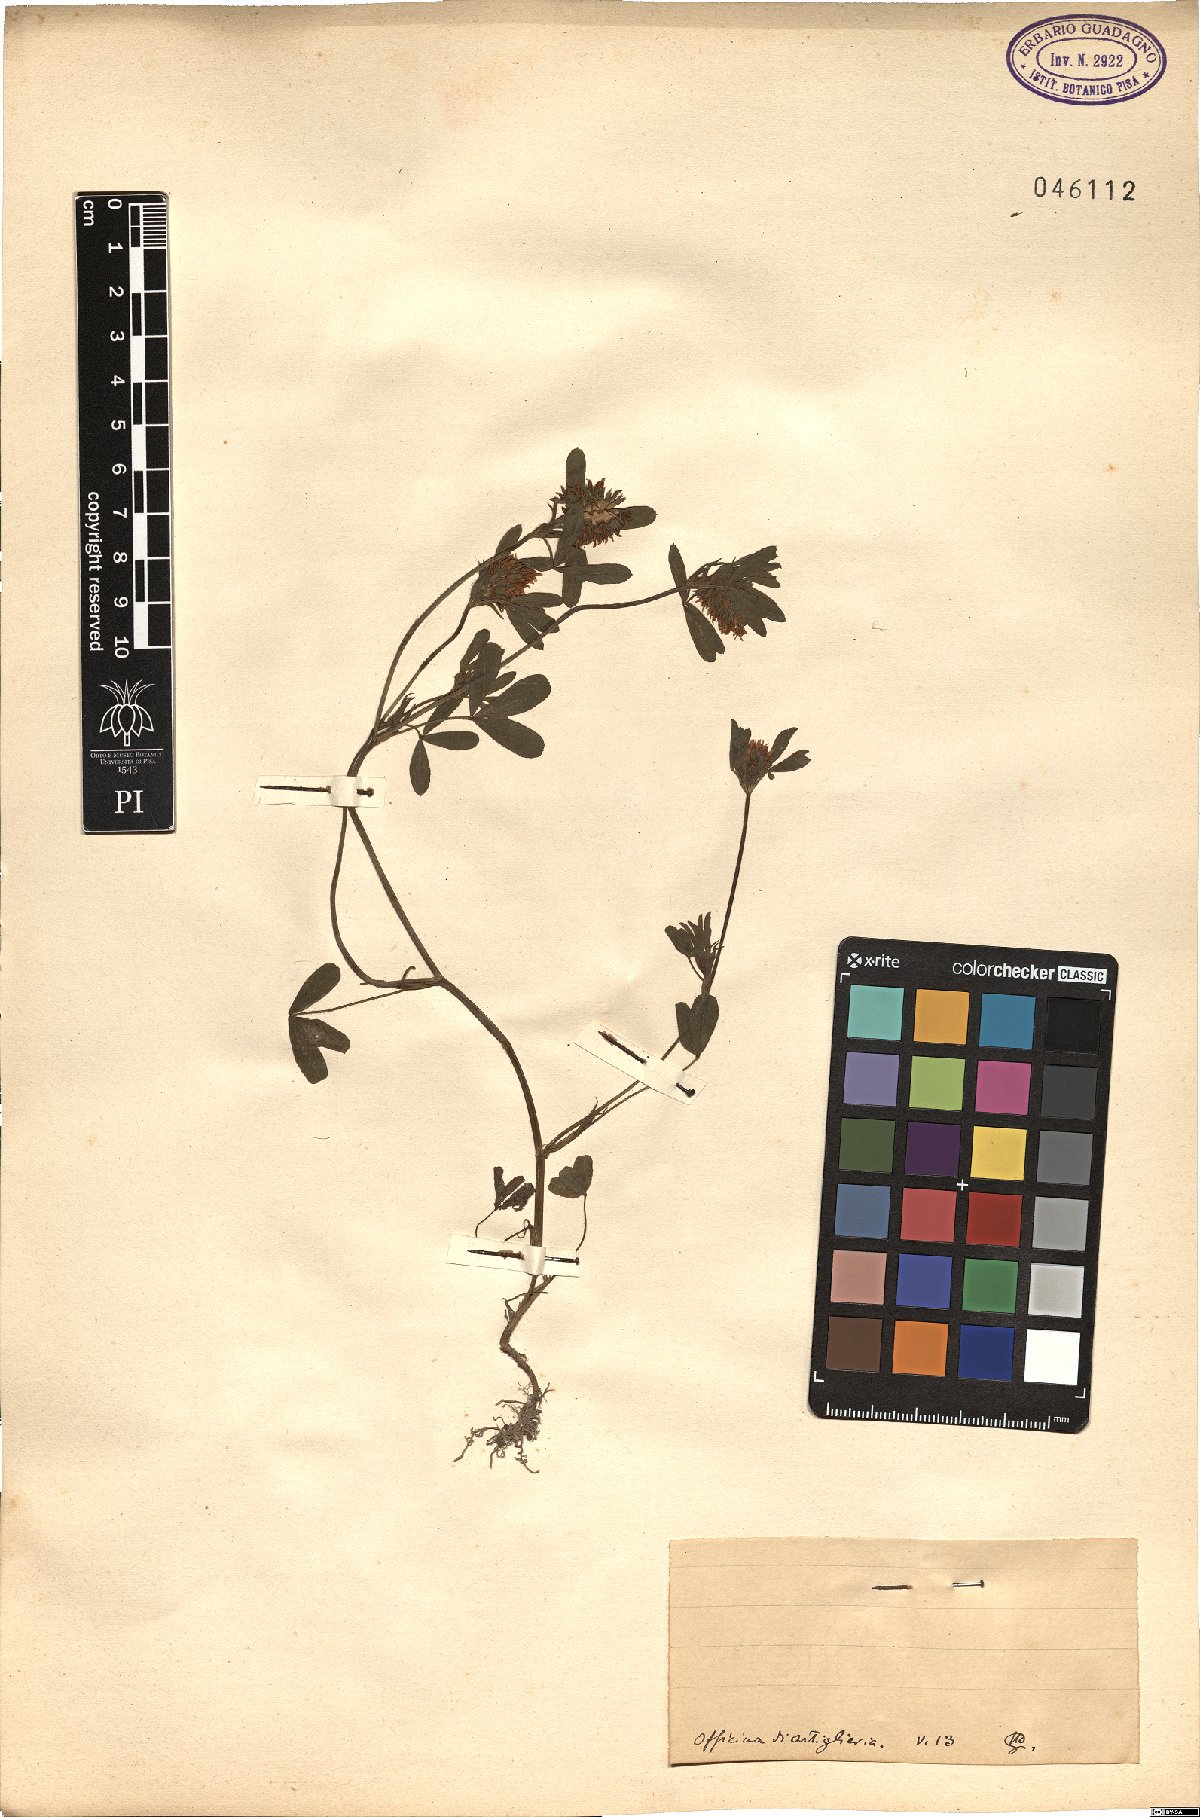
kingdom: Plantae
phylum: Tracheophyta
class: Magnoliopsida
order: Fabales
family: Fabaceae
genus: Trifolium
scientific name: Trifolium
